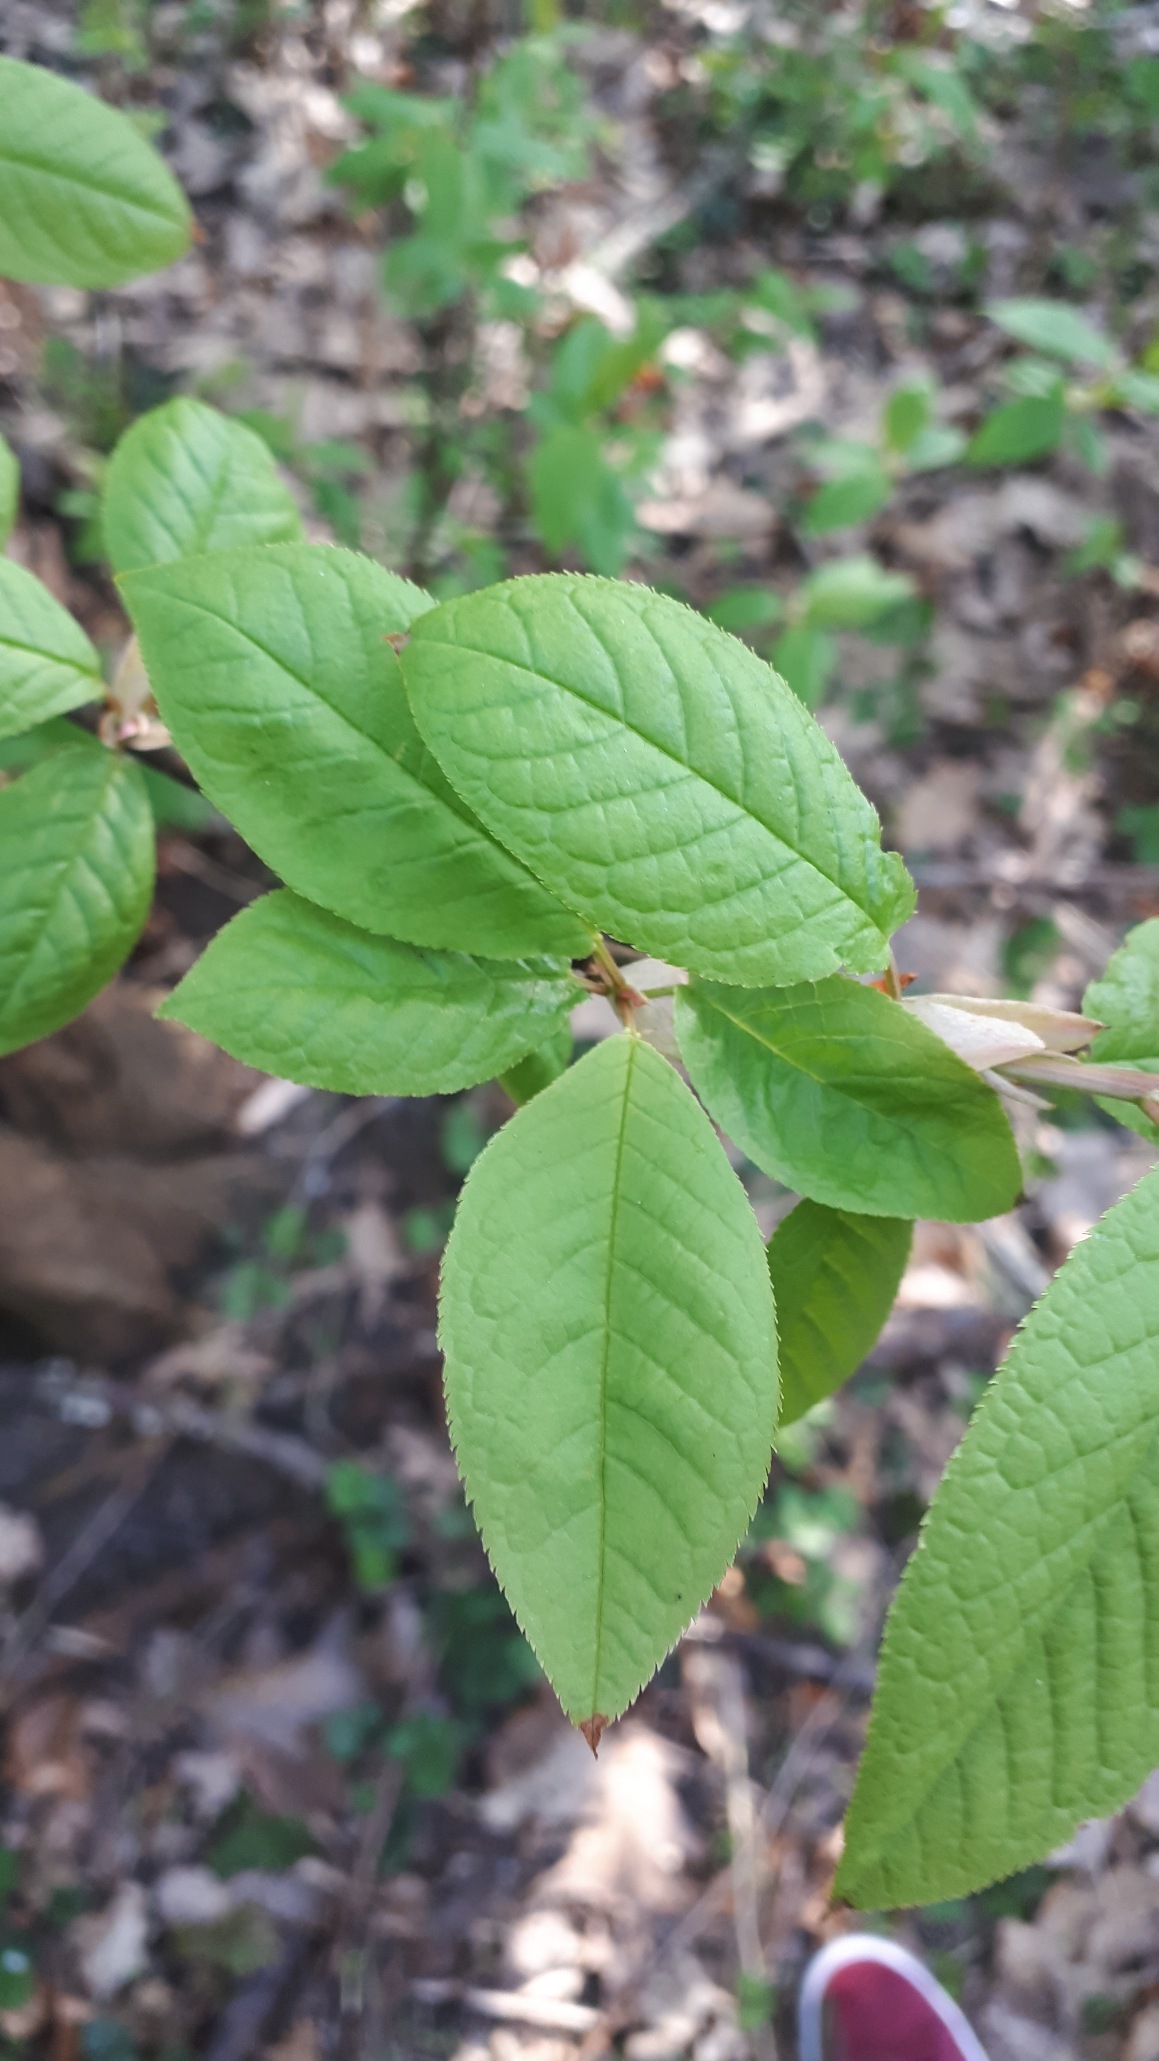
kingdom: Plantae
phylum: Tracheophyta
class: Magnoliopsida
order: Rosales
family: Rosaceae
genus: Prunus
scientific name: Prunus padus
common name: Almindelig hæg
